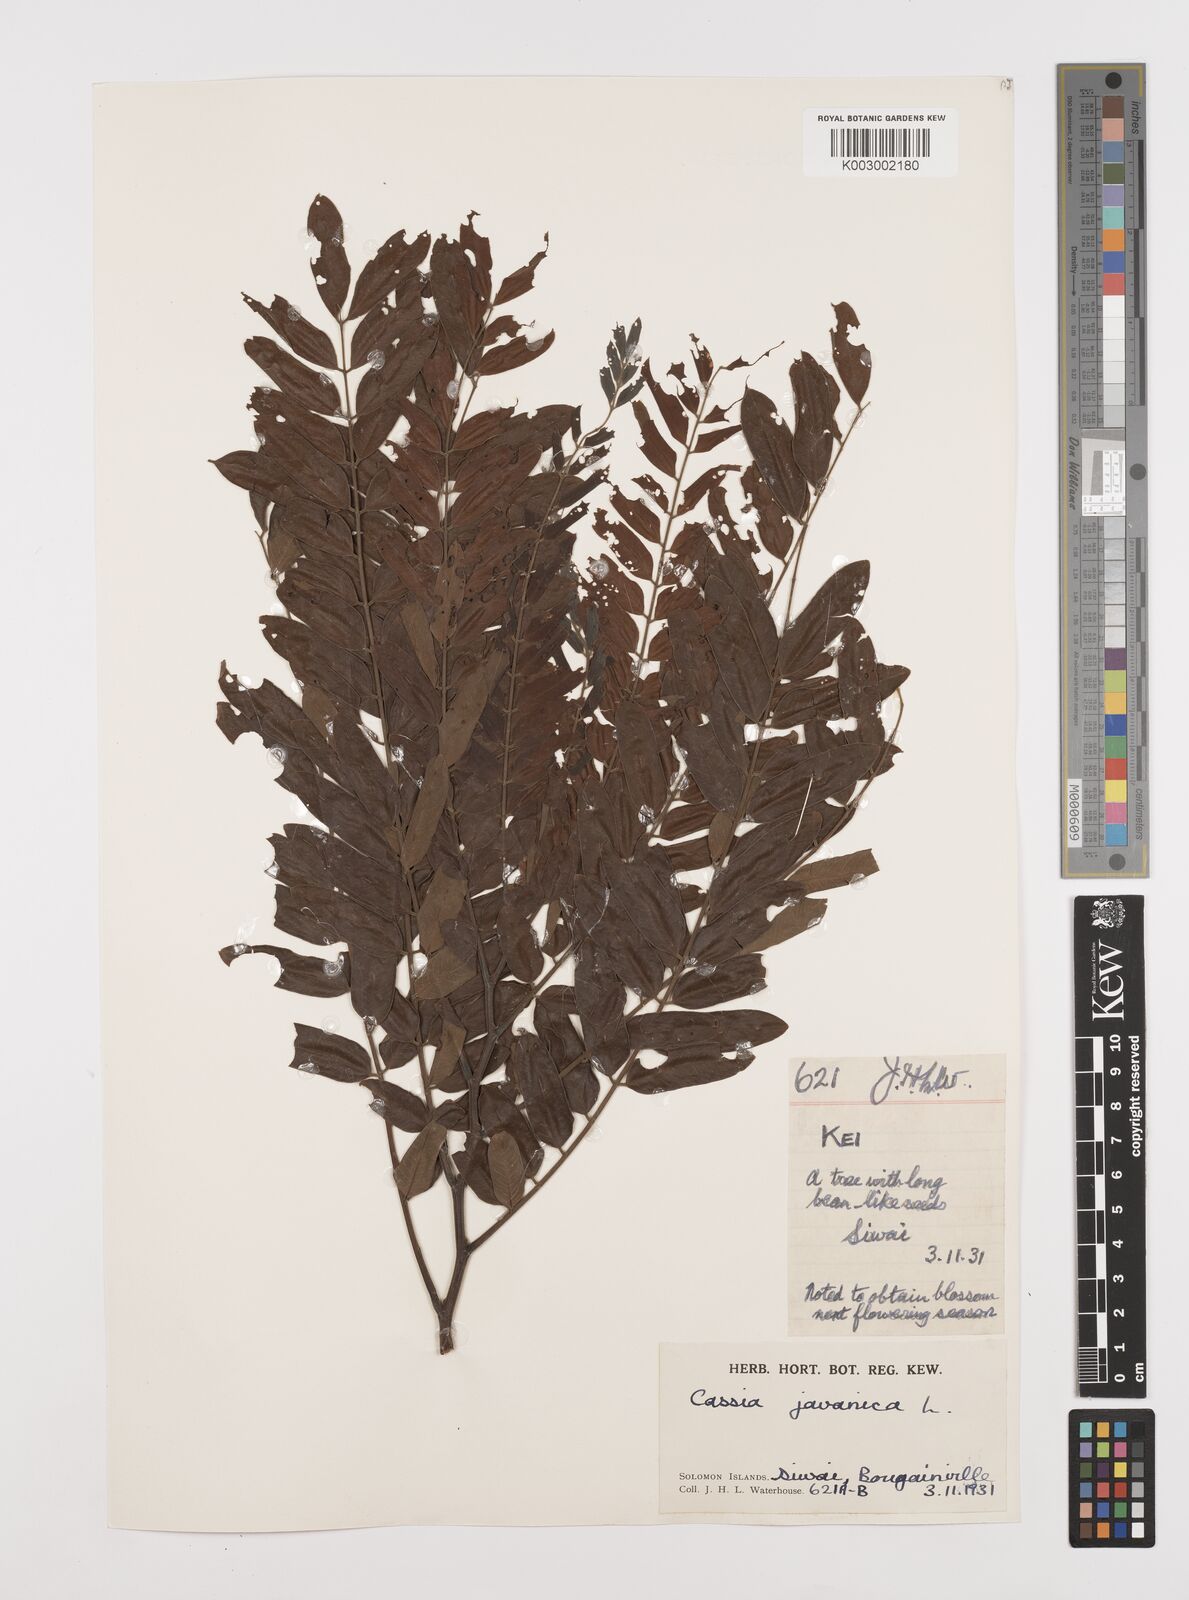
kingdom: Plantae
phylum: Tracheophyta
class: Magnoliopsida
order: Fabales
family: Fabaceae
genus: Cassia
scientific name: Cassia javanica
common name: Apple blossom
